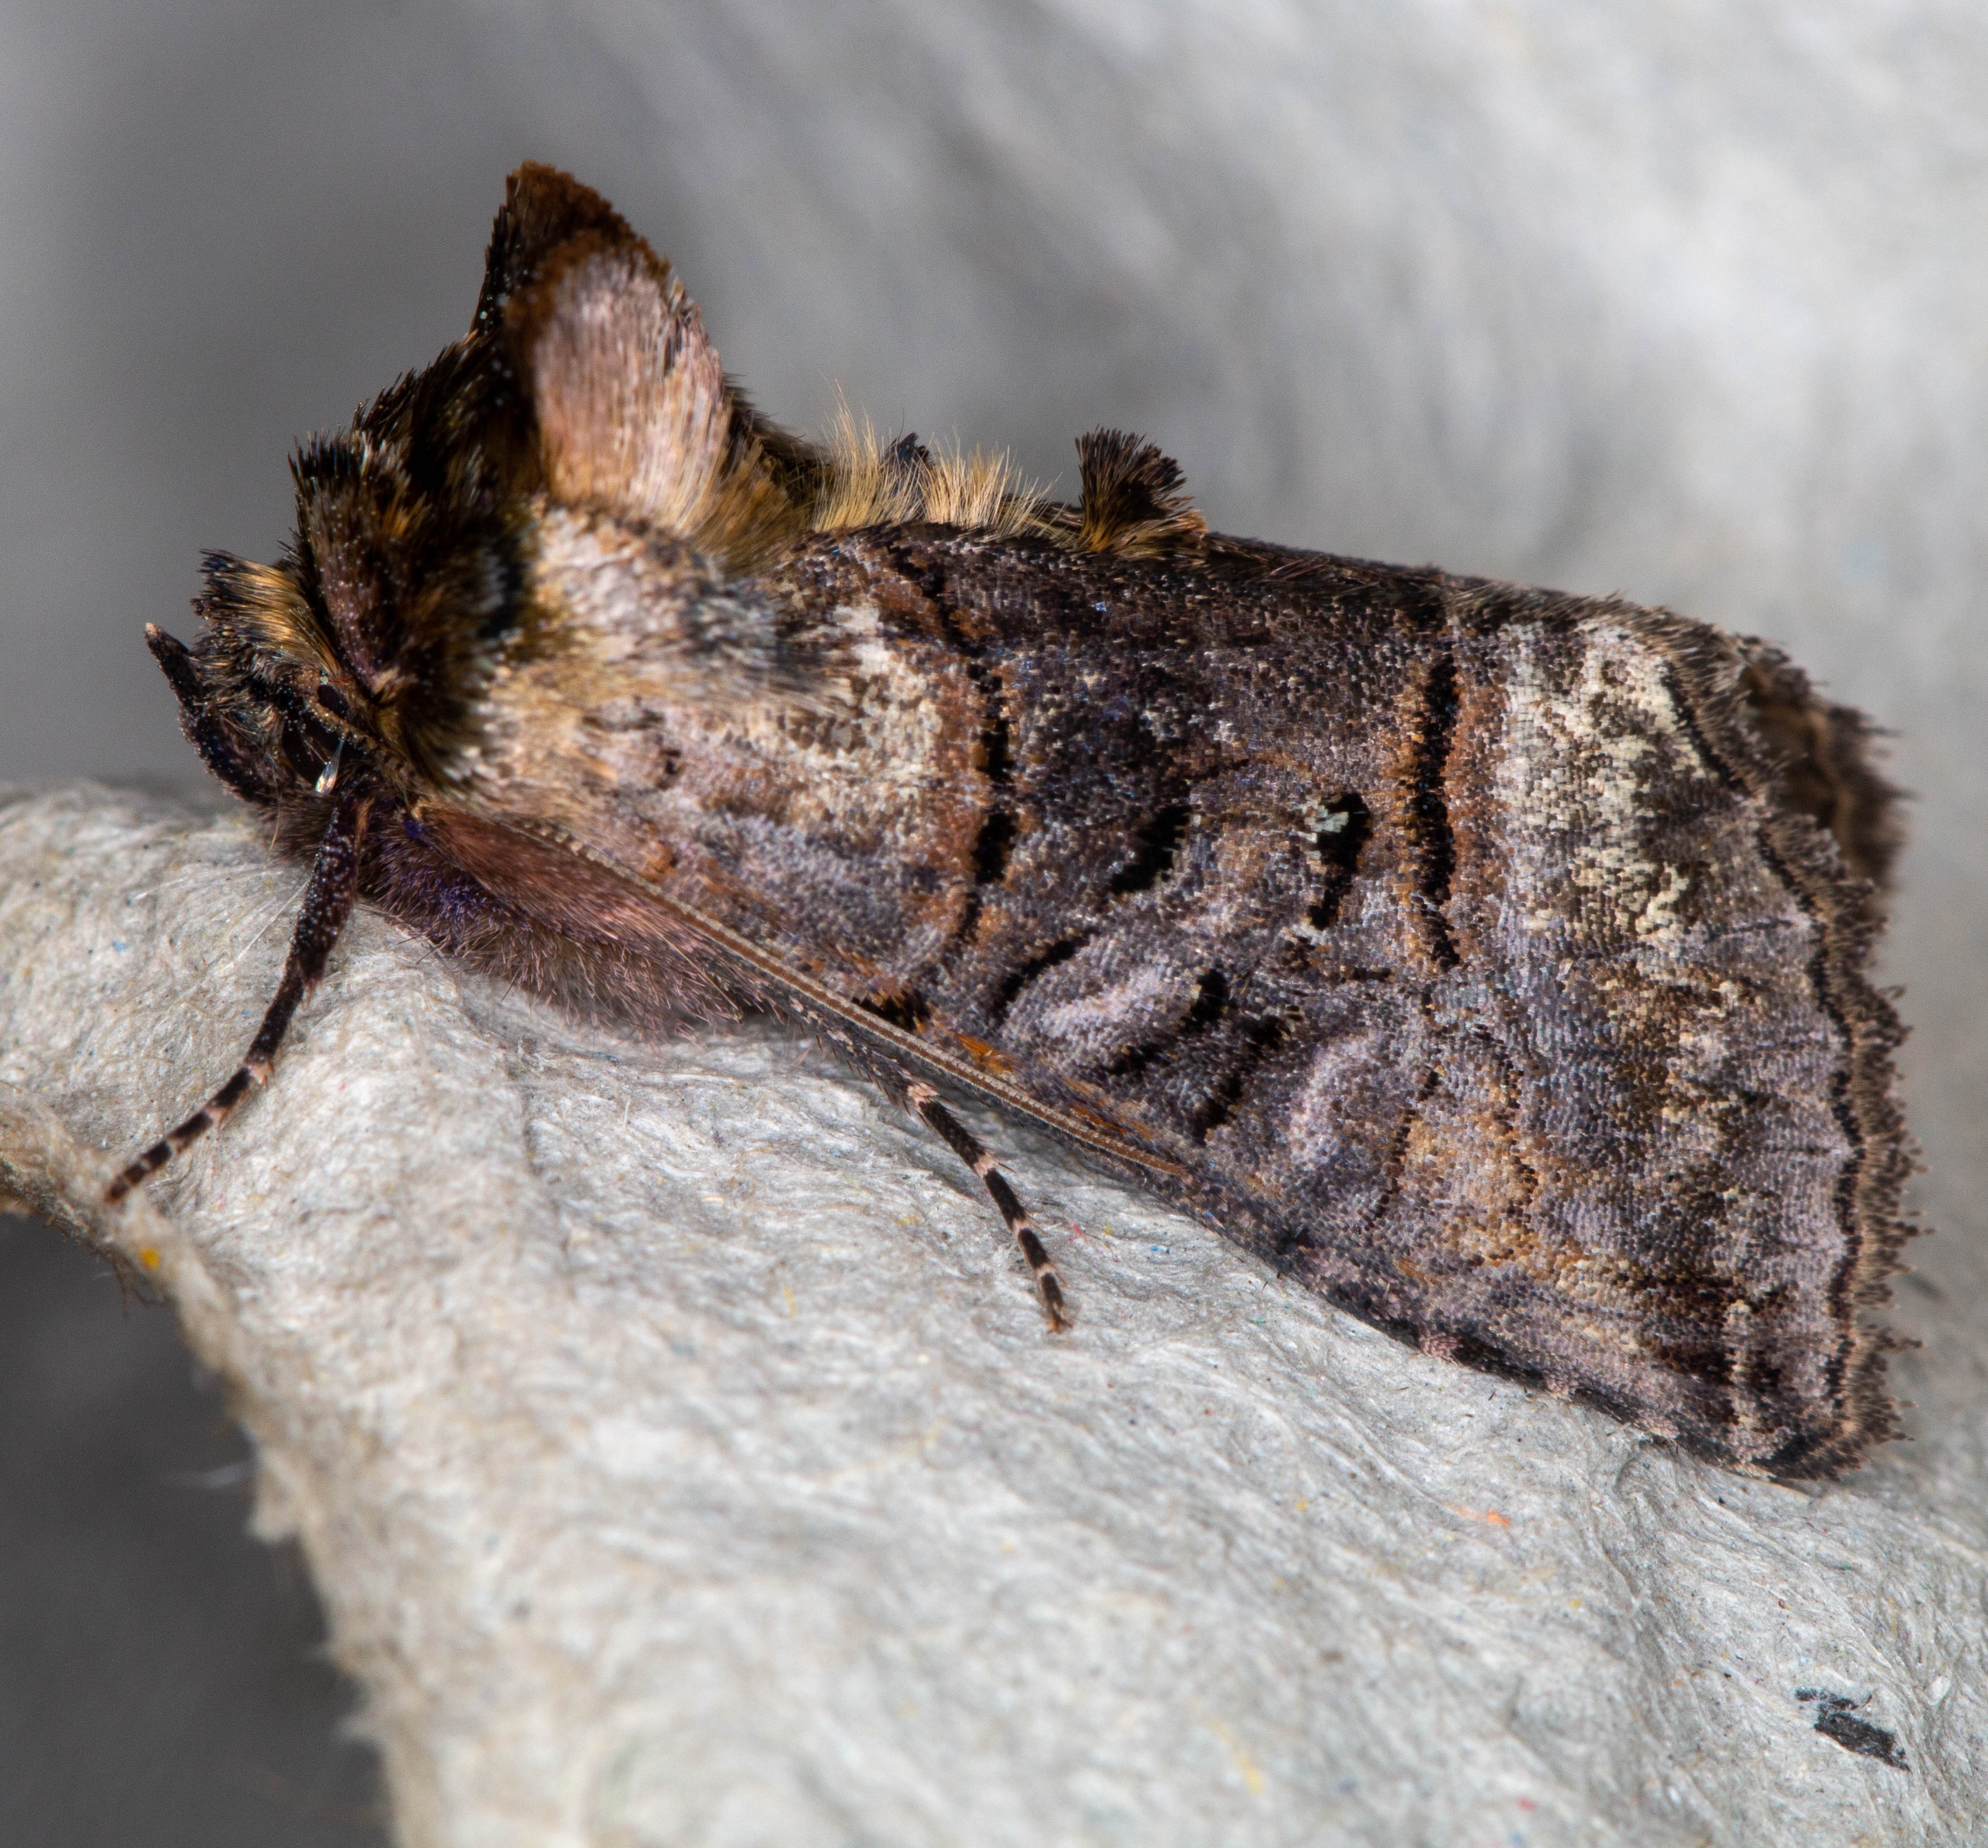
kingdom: Animalia
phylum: Arthropoda
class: Insecta
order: Lepidoptera
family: Noctuidae
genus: Abrostola
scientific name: Abrostola tripartita
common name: Brun nældeugle
